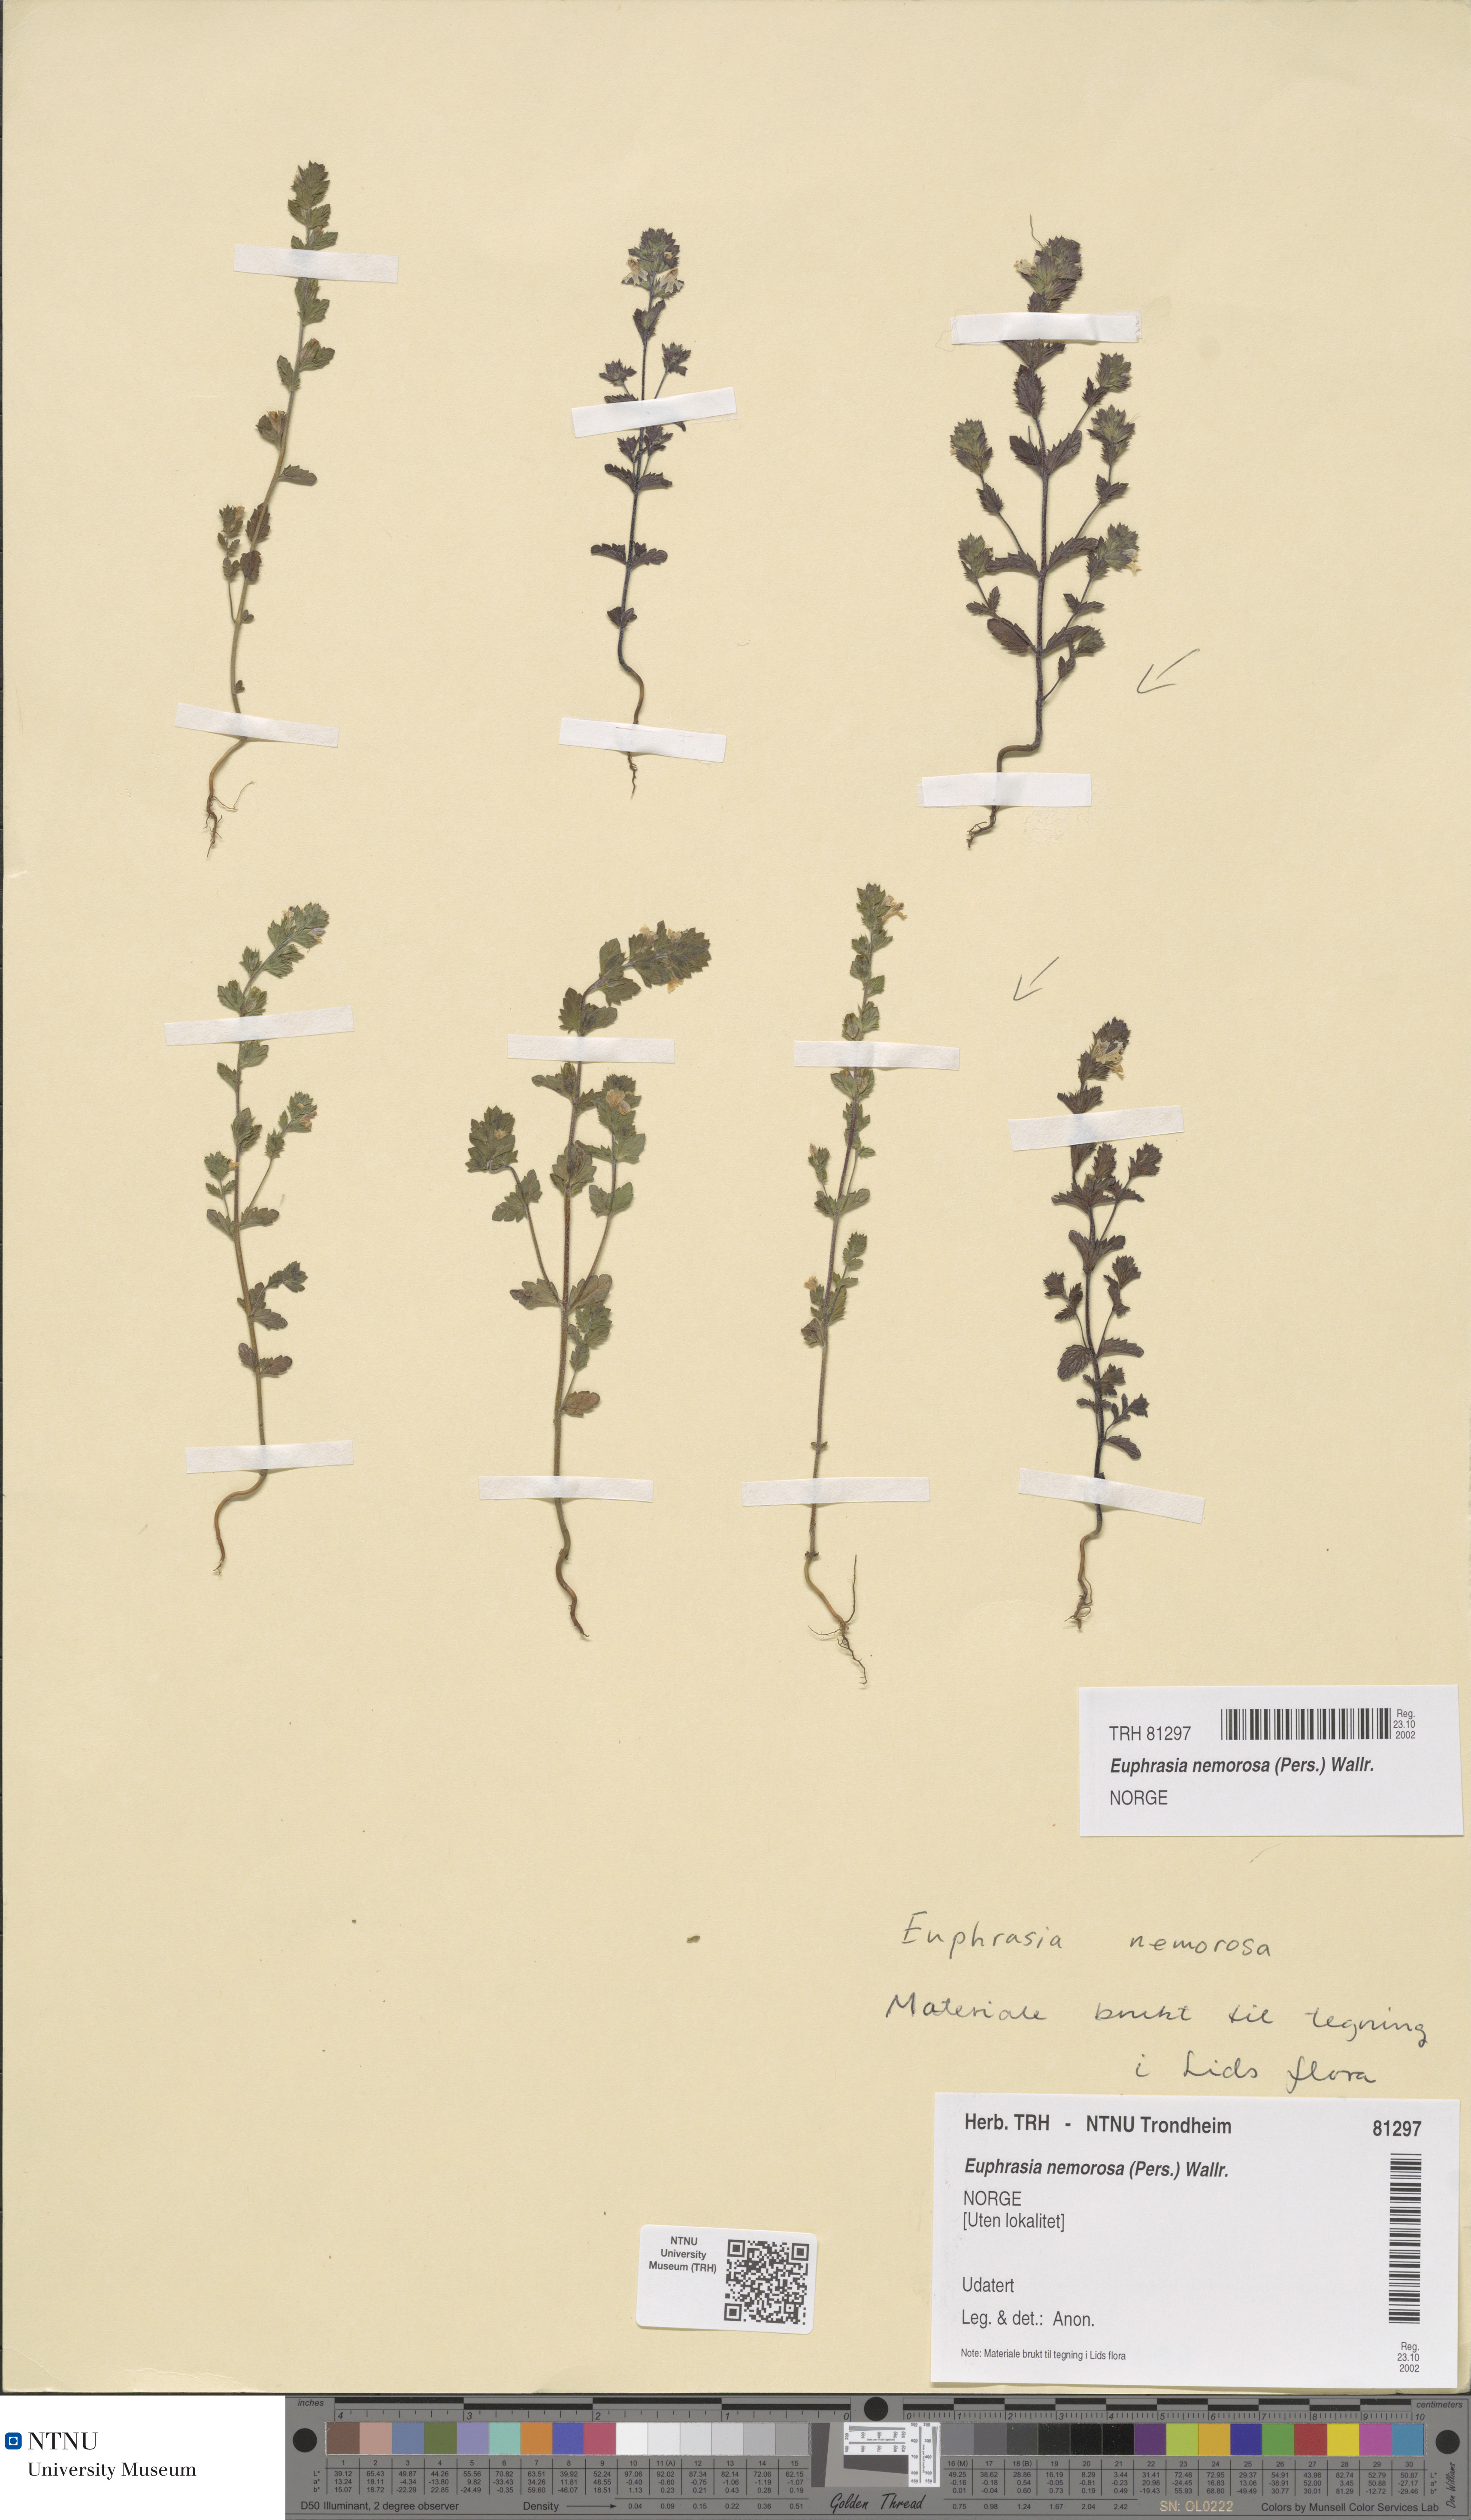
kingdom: Plantae
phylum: Tracheophyta
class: Magnoliopsida
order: Lamiales
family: Orobanchaceae
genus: Euphrasia
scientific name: Euphrasia nemorosa
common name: Common eyebright
